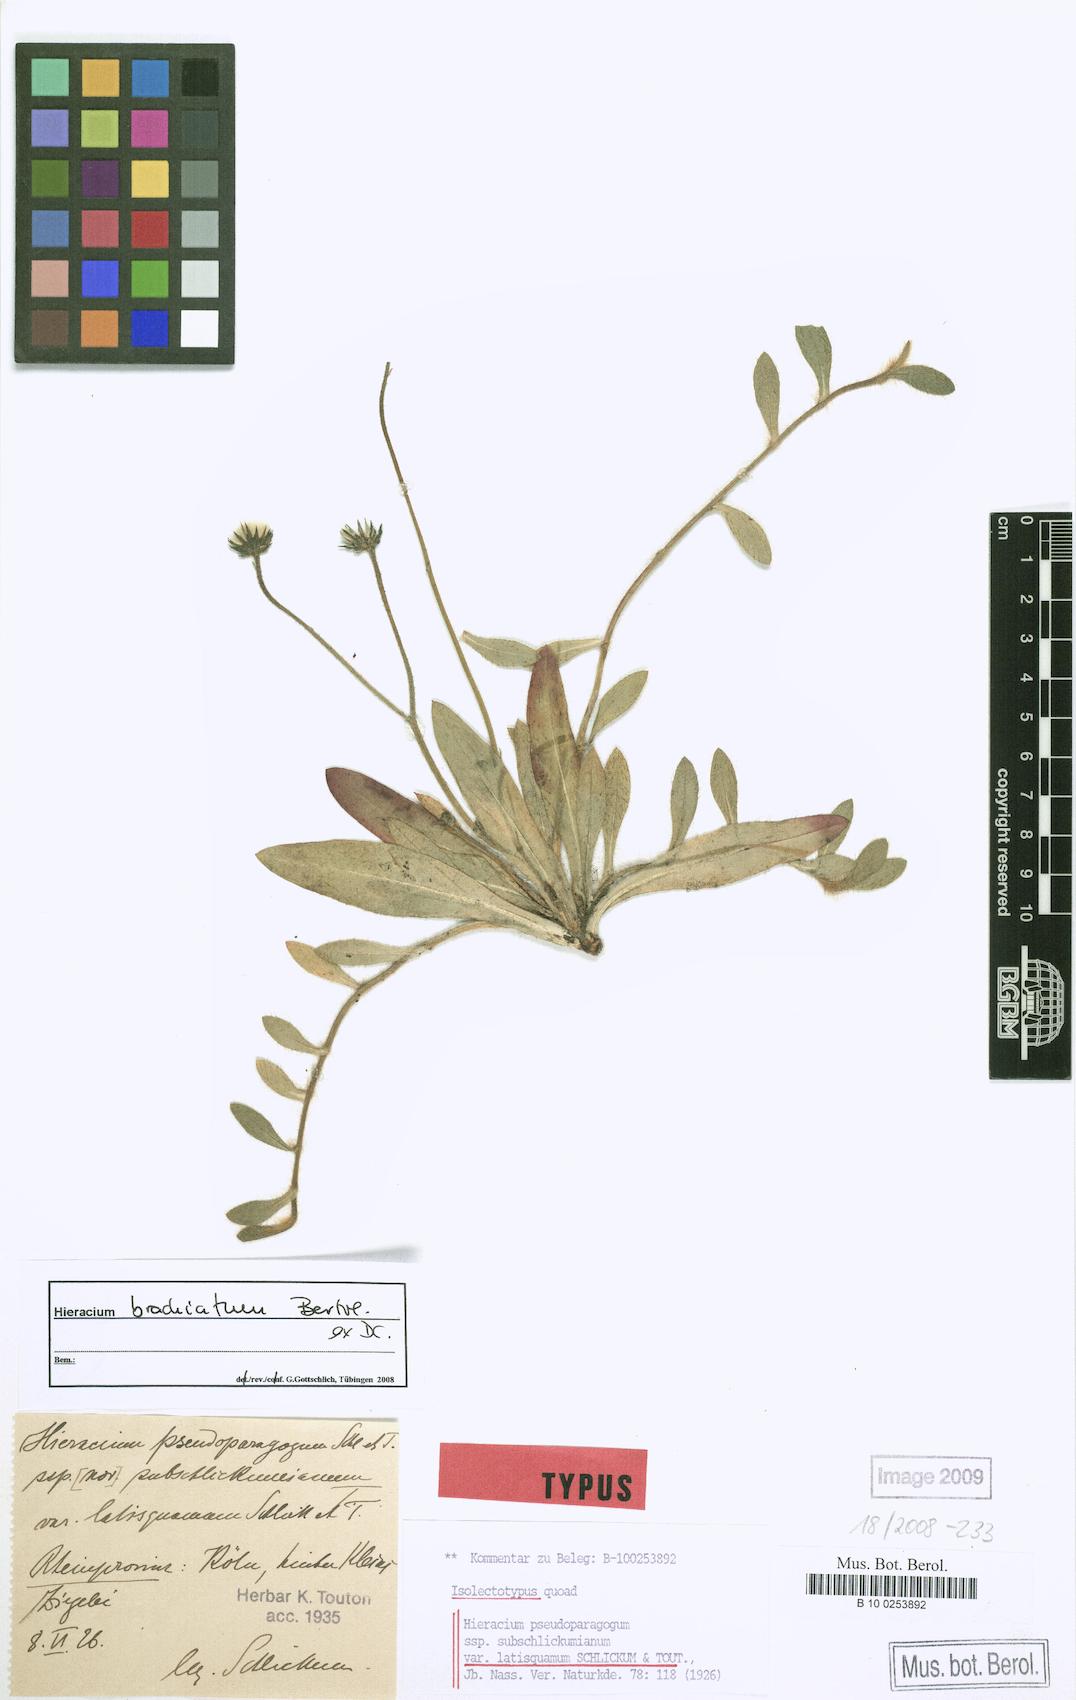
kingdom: Plantae
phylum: Tracheophyta
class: Magnoliopsida
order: Asterales
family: Asteraceae
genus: Pilosella
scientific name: Pilosella acutifolia
